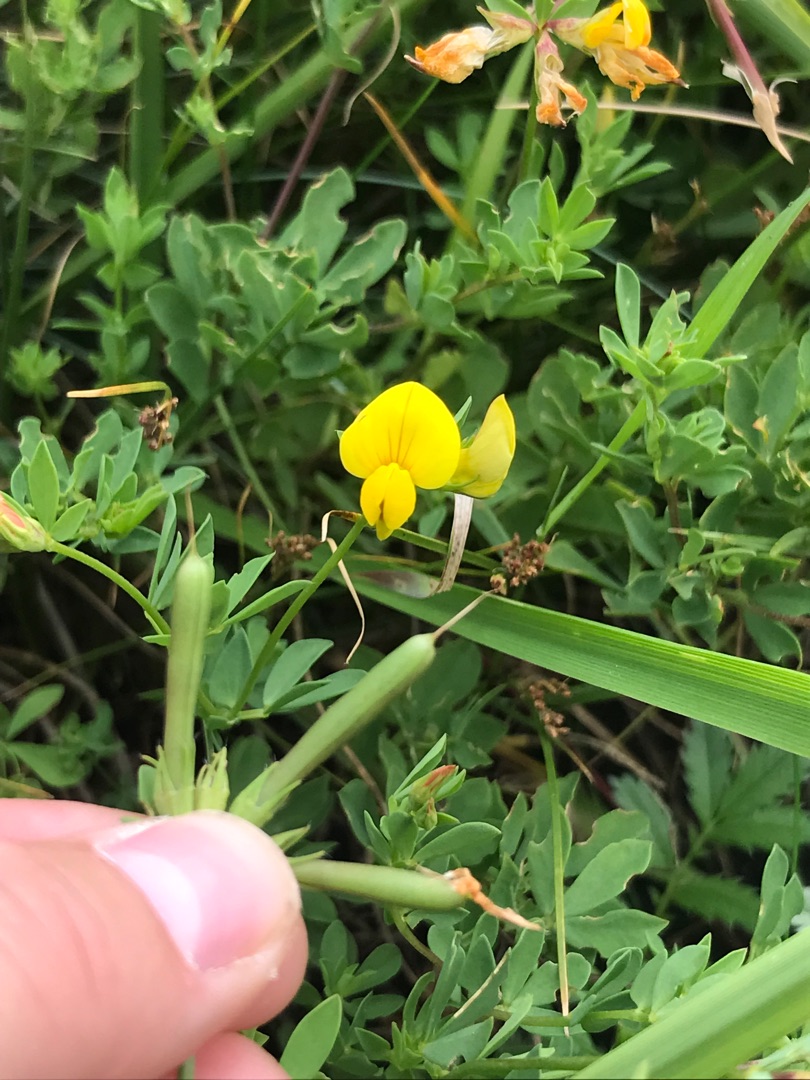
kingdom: Plantae
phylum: Tracheophyta
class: Magnoliopsida
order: Fabales
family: Fabaceae
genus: Lotus
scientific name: Lotus corniculatus
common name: Almindelig kællingetand
